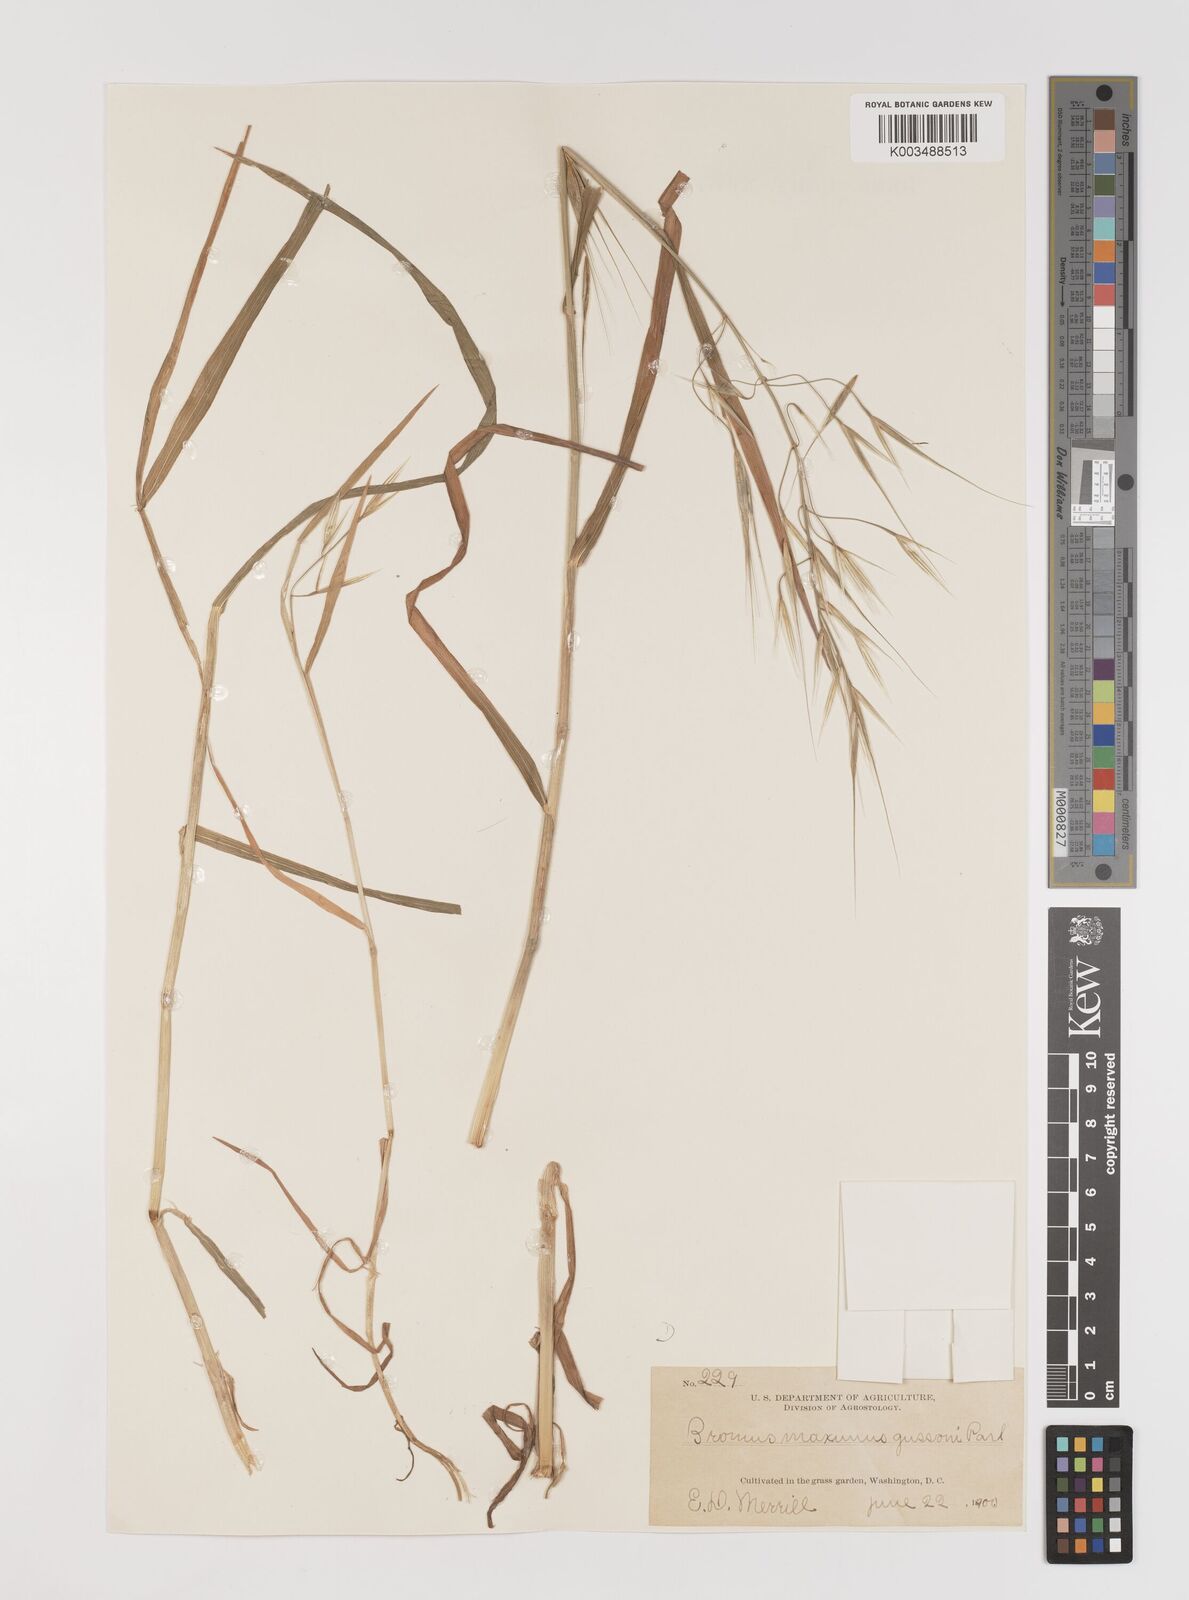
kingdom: Plantae
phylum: Tracheophyta
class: Liliopsida
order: Poales
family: Poaceae
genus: Bromus
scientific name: Bromus diandrus
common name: Ripgut brome
